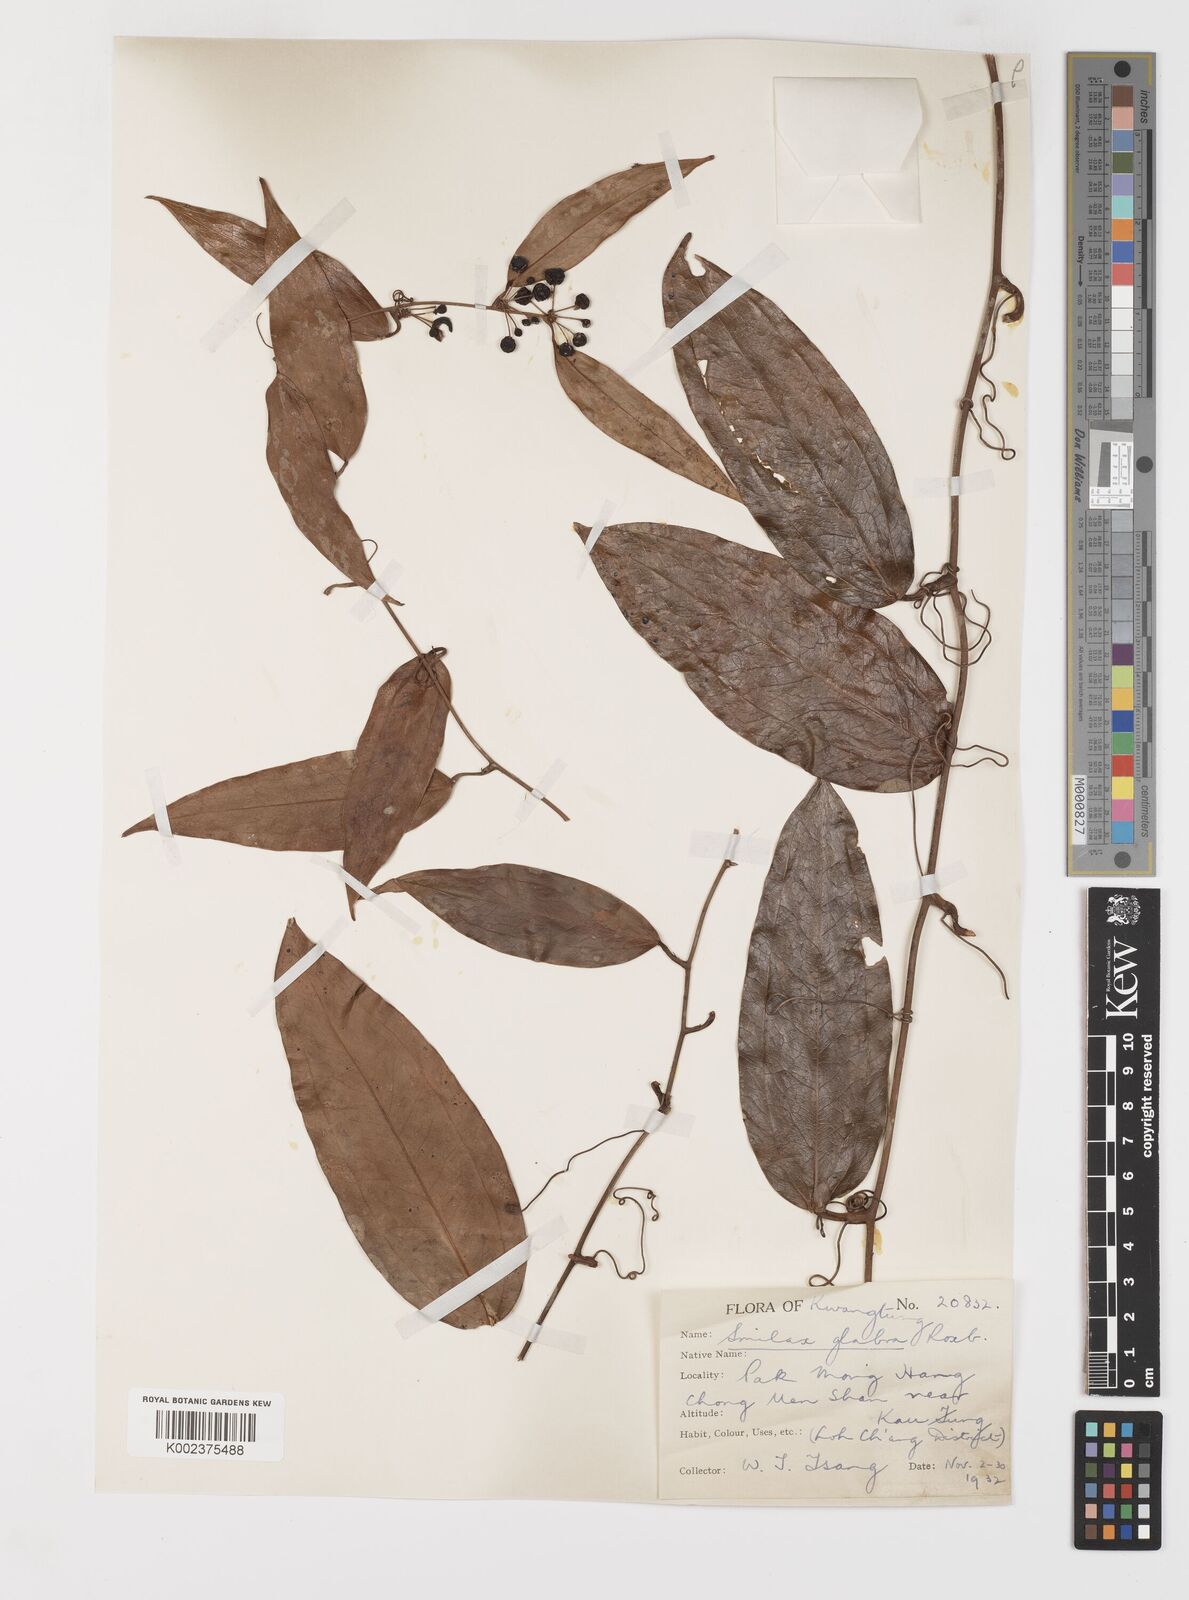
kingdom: Plantae
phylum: Tracheophyta
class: Liliopsida
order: Liliales
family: Smilacaceae
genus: Smilax
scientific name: Smilax glabra
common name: Chinese smilax
